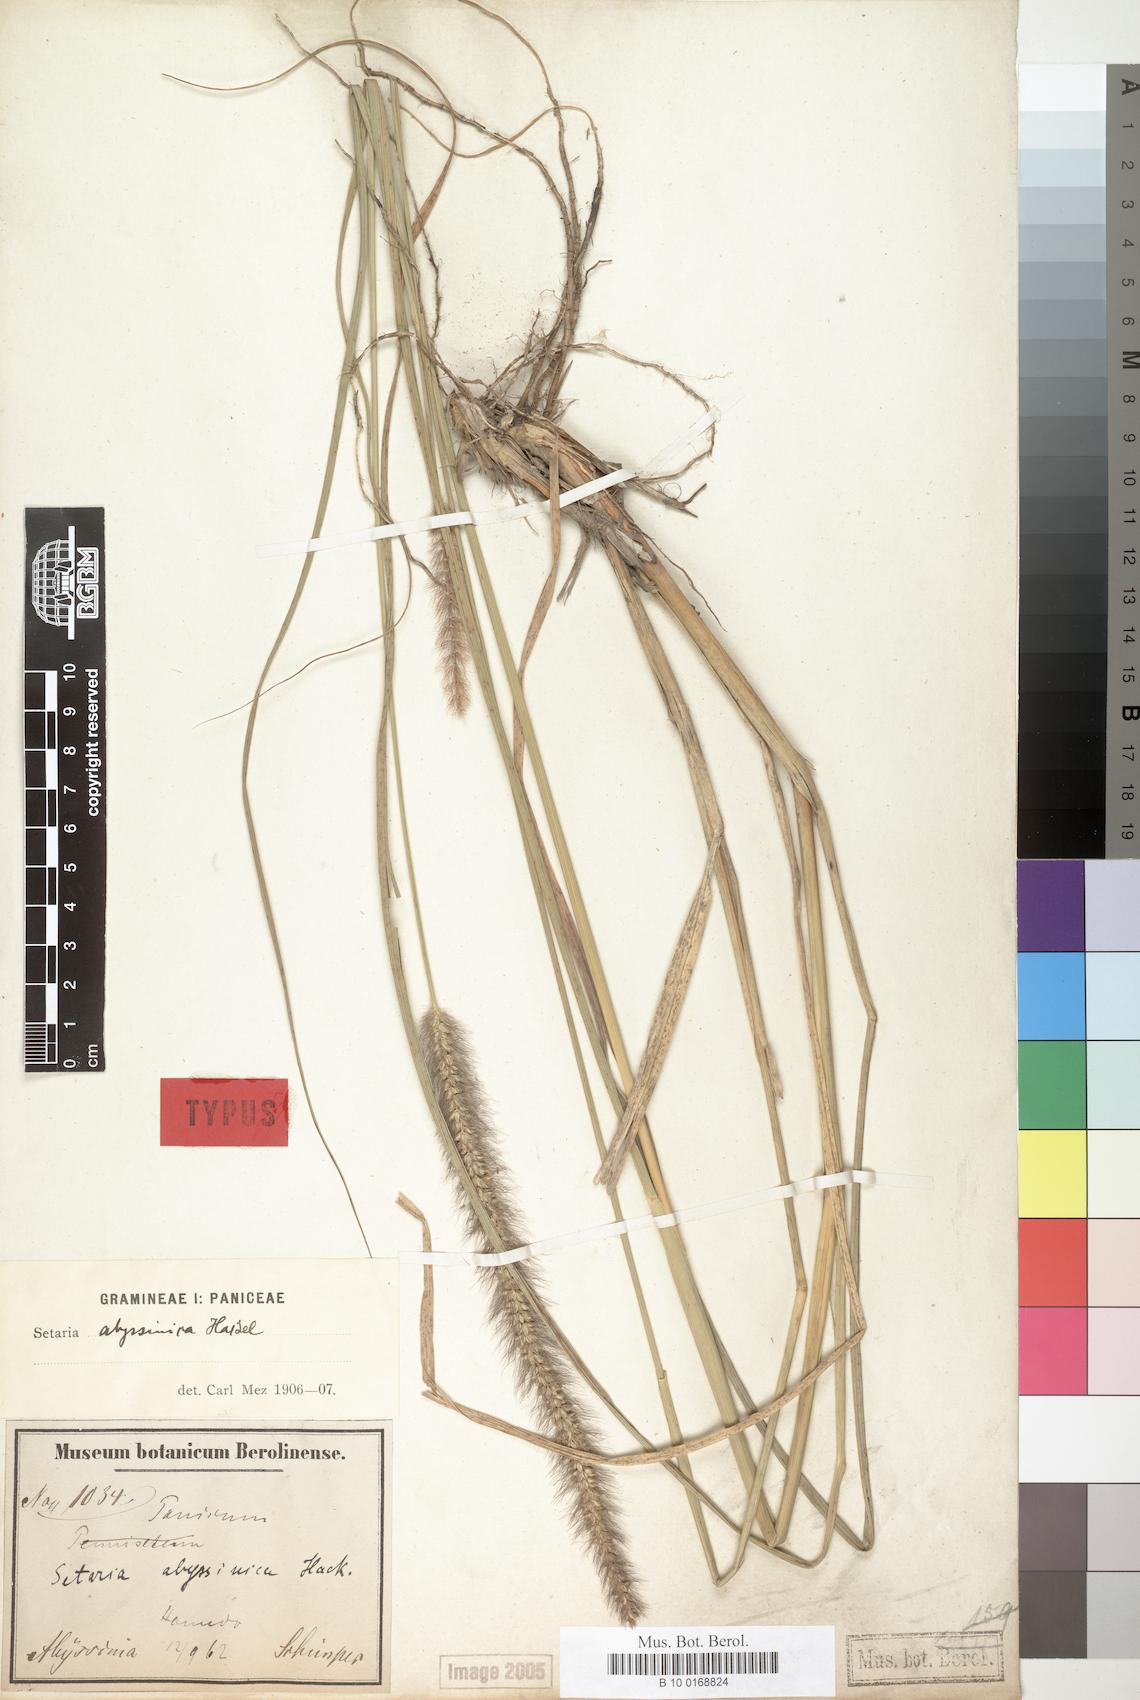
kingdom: Plantae
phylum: Tracheophyta
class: Liliopsida
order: Poales
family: Poaceae
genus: Setaria
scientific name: Setaria incrassata
